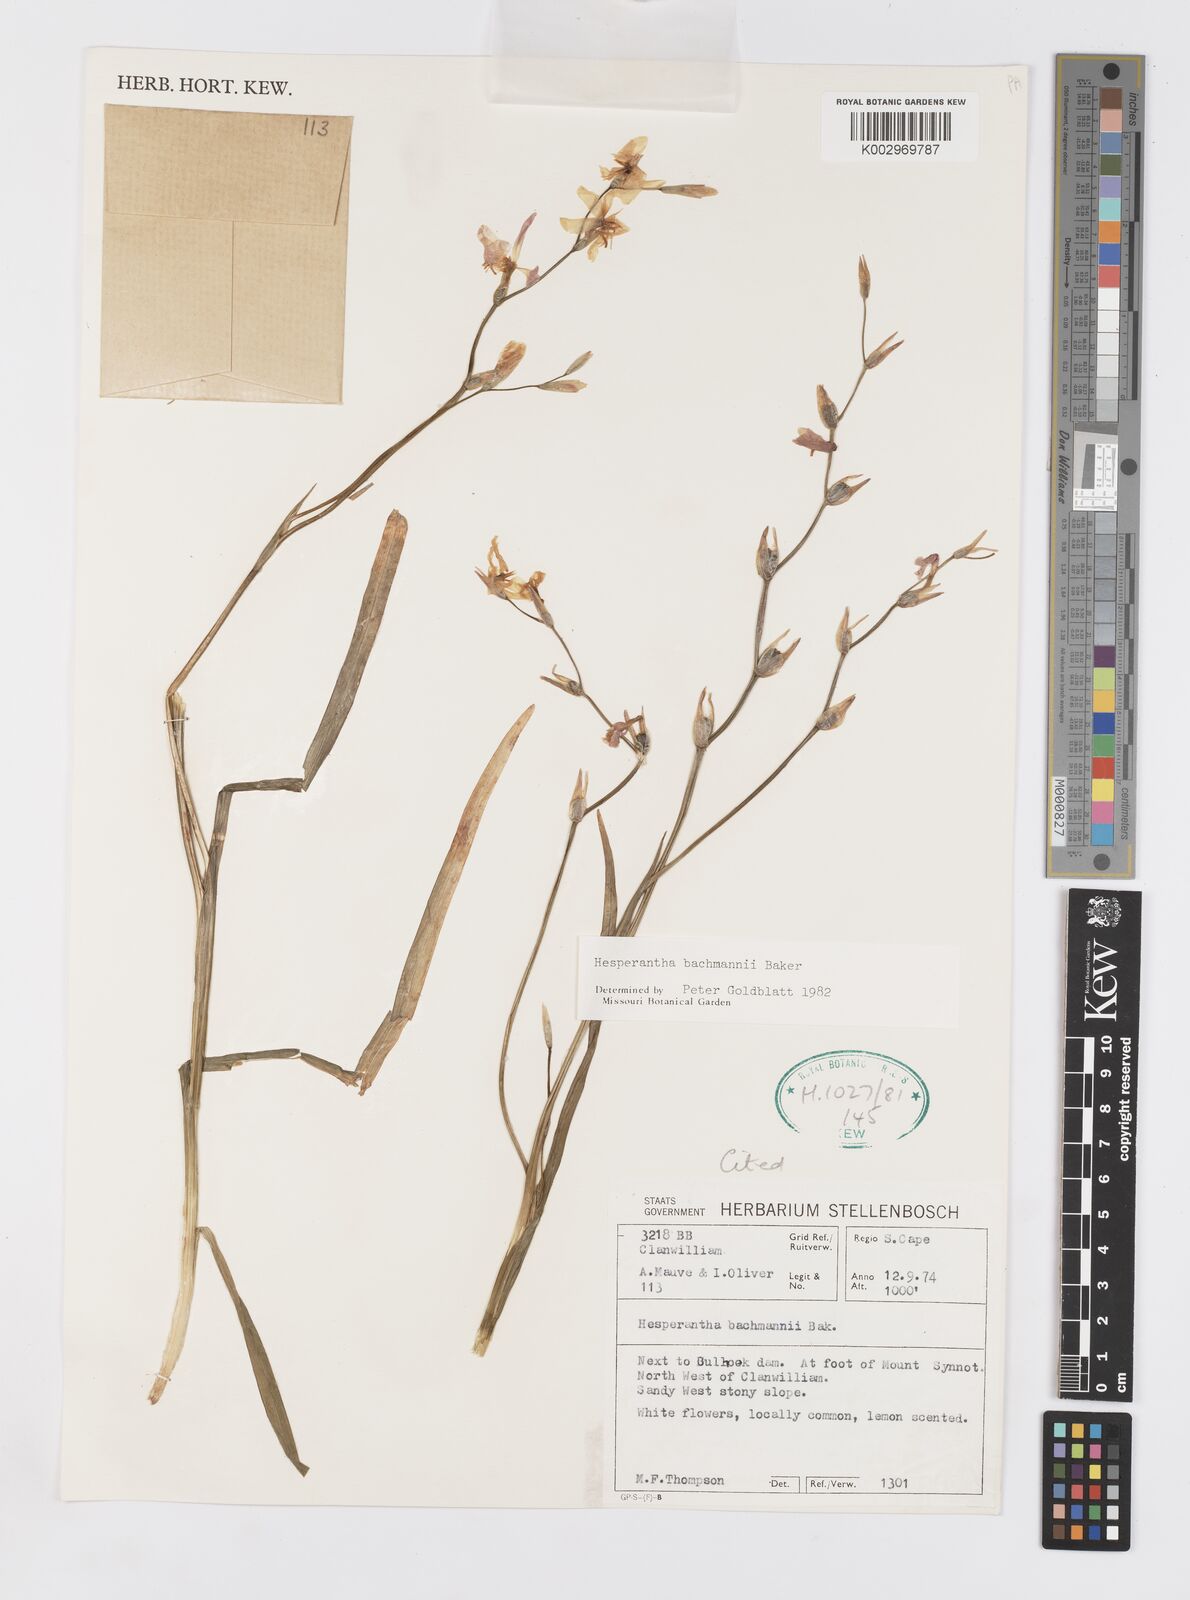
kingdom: Plantae
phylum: Tracheophyta
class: Liliopsida
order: Asparagales
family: Iridaceae
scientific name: Iridaceae
